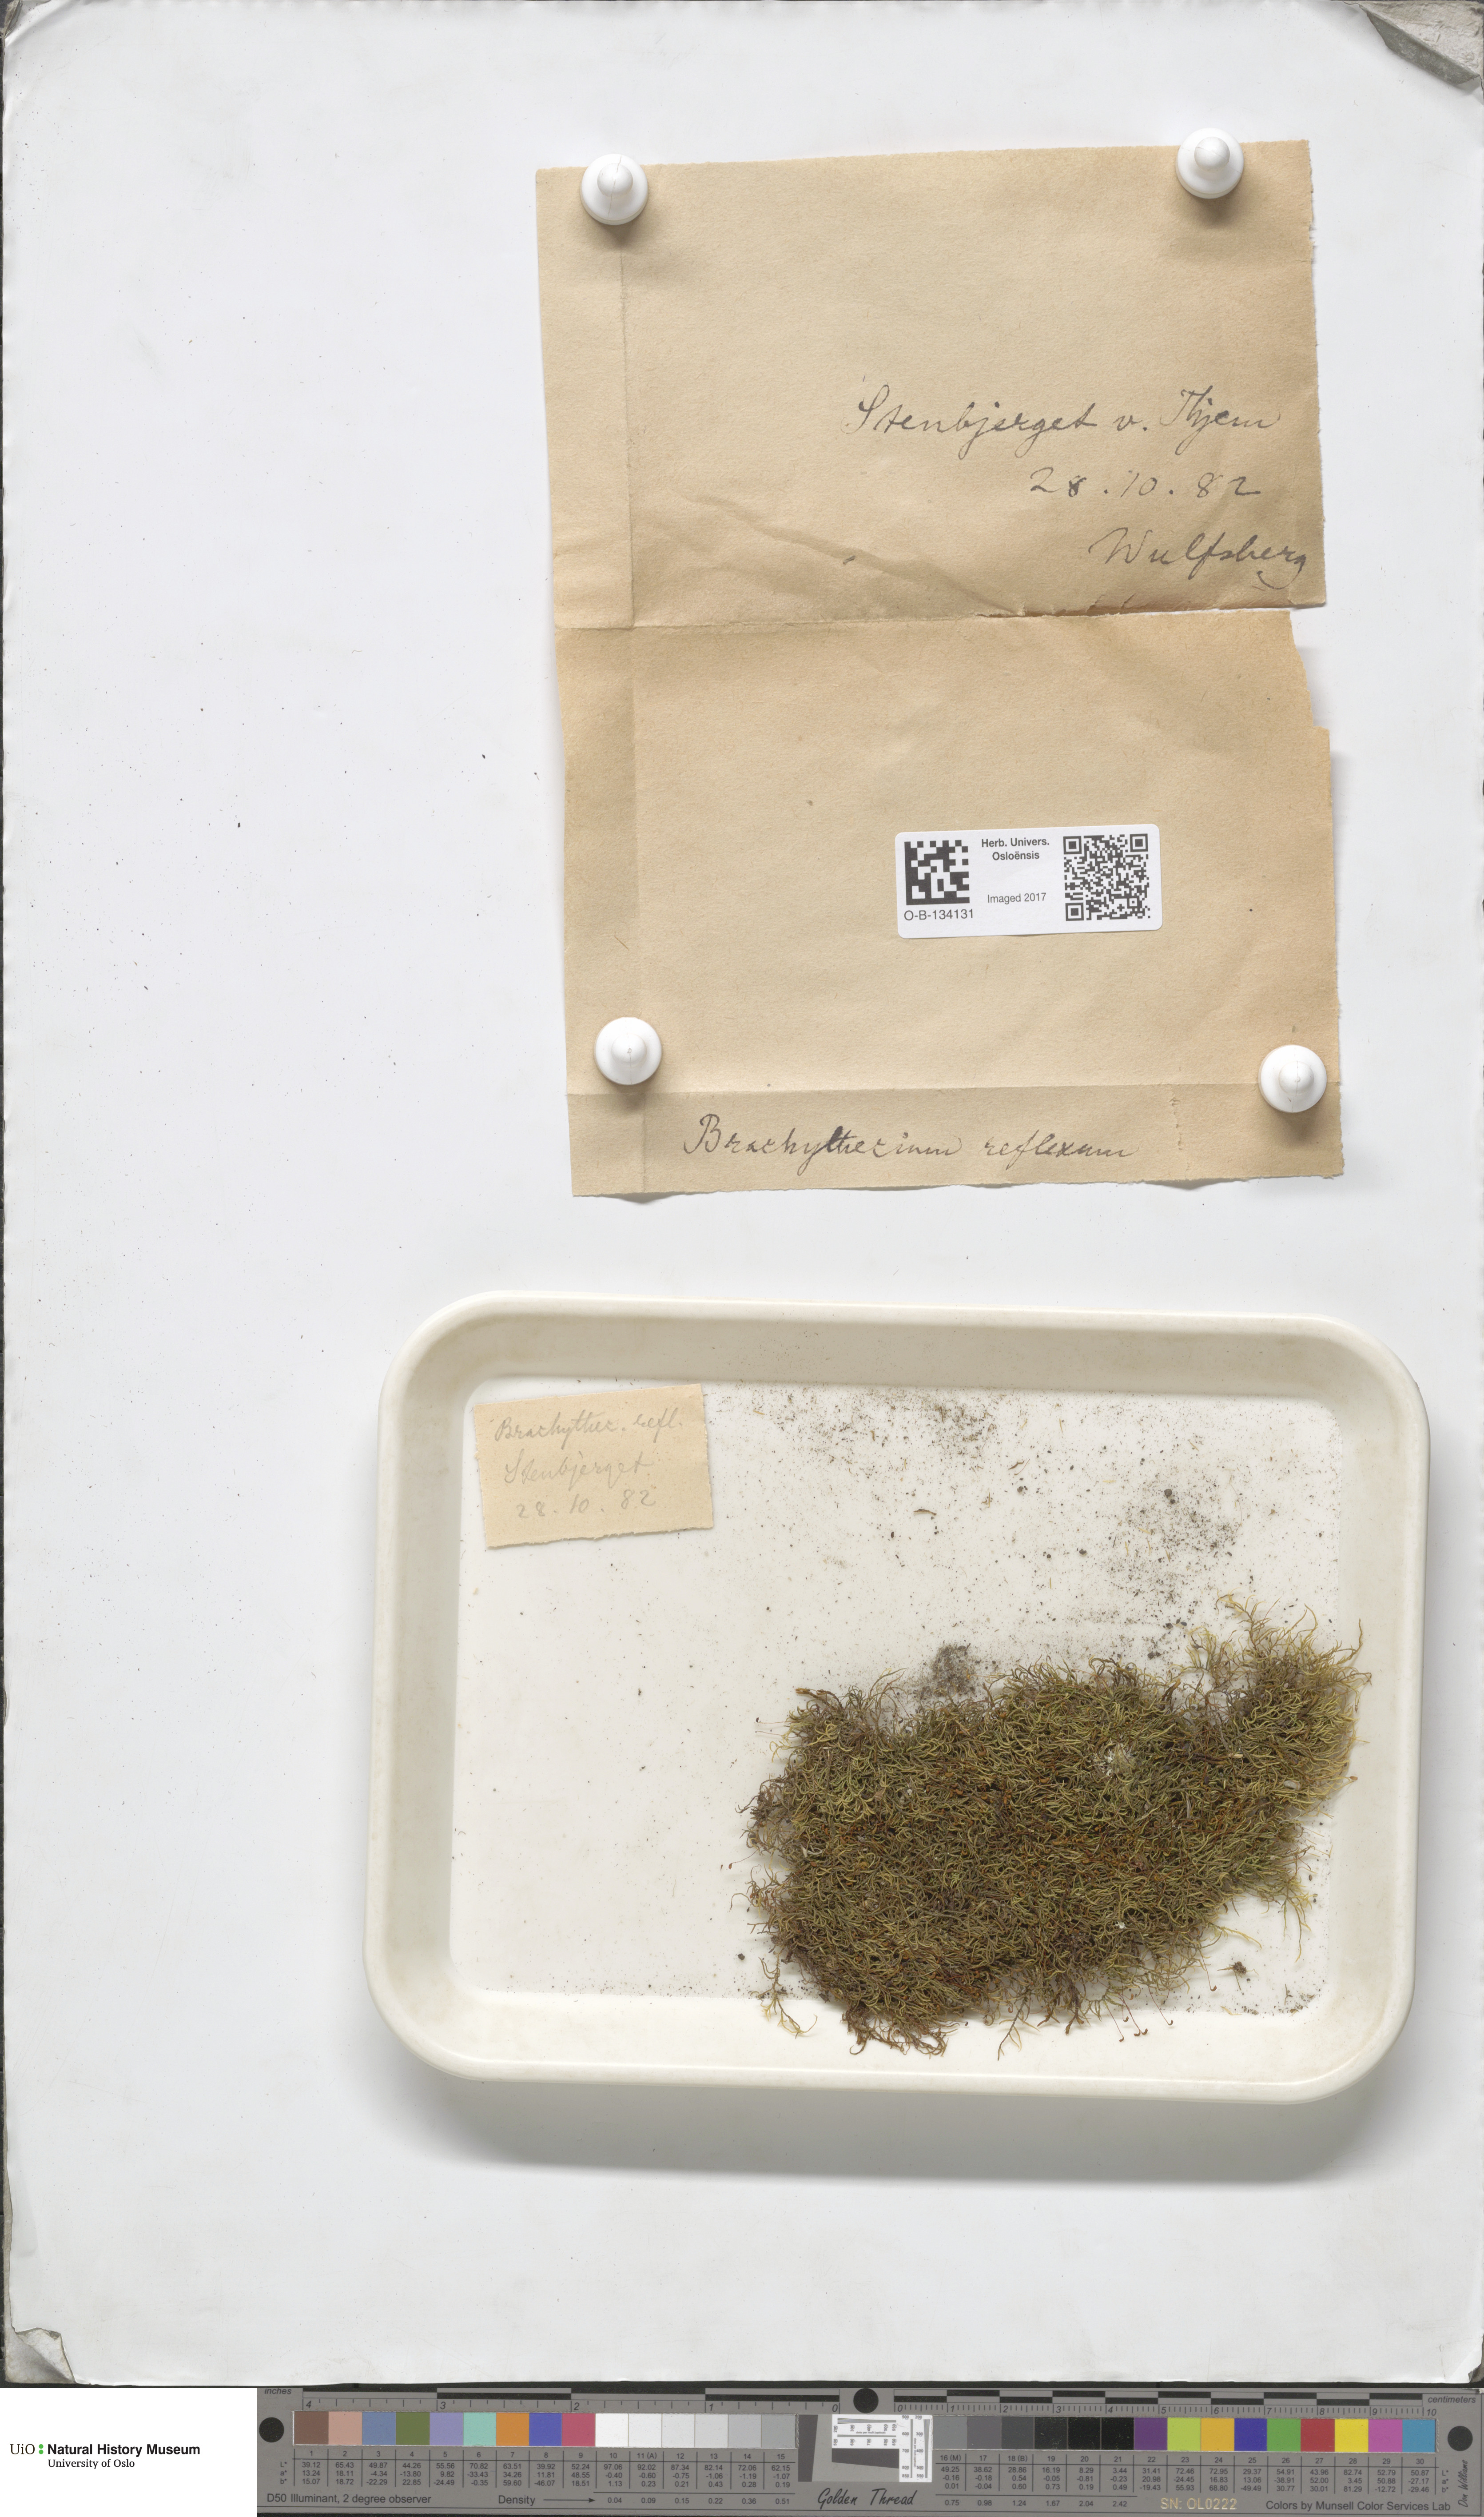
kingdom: Plantae
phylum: Bryophyta
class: Bryopsida
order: Hypnales
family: Brachytheciaceae
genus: Sciuro-hypnum
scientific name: Sciuro-hypnum reflexum
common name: Reflexed feather-moss
